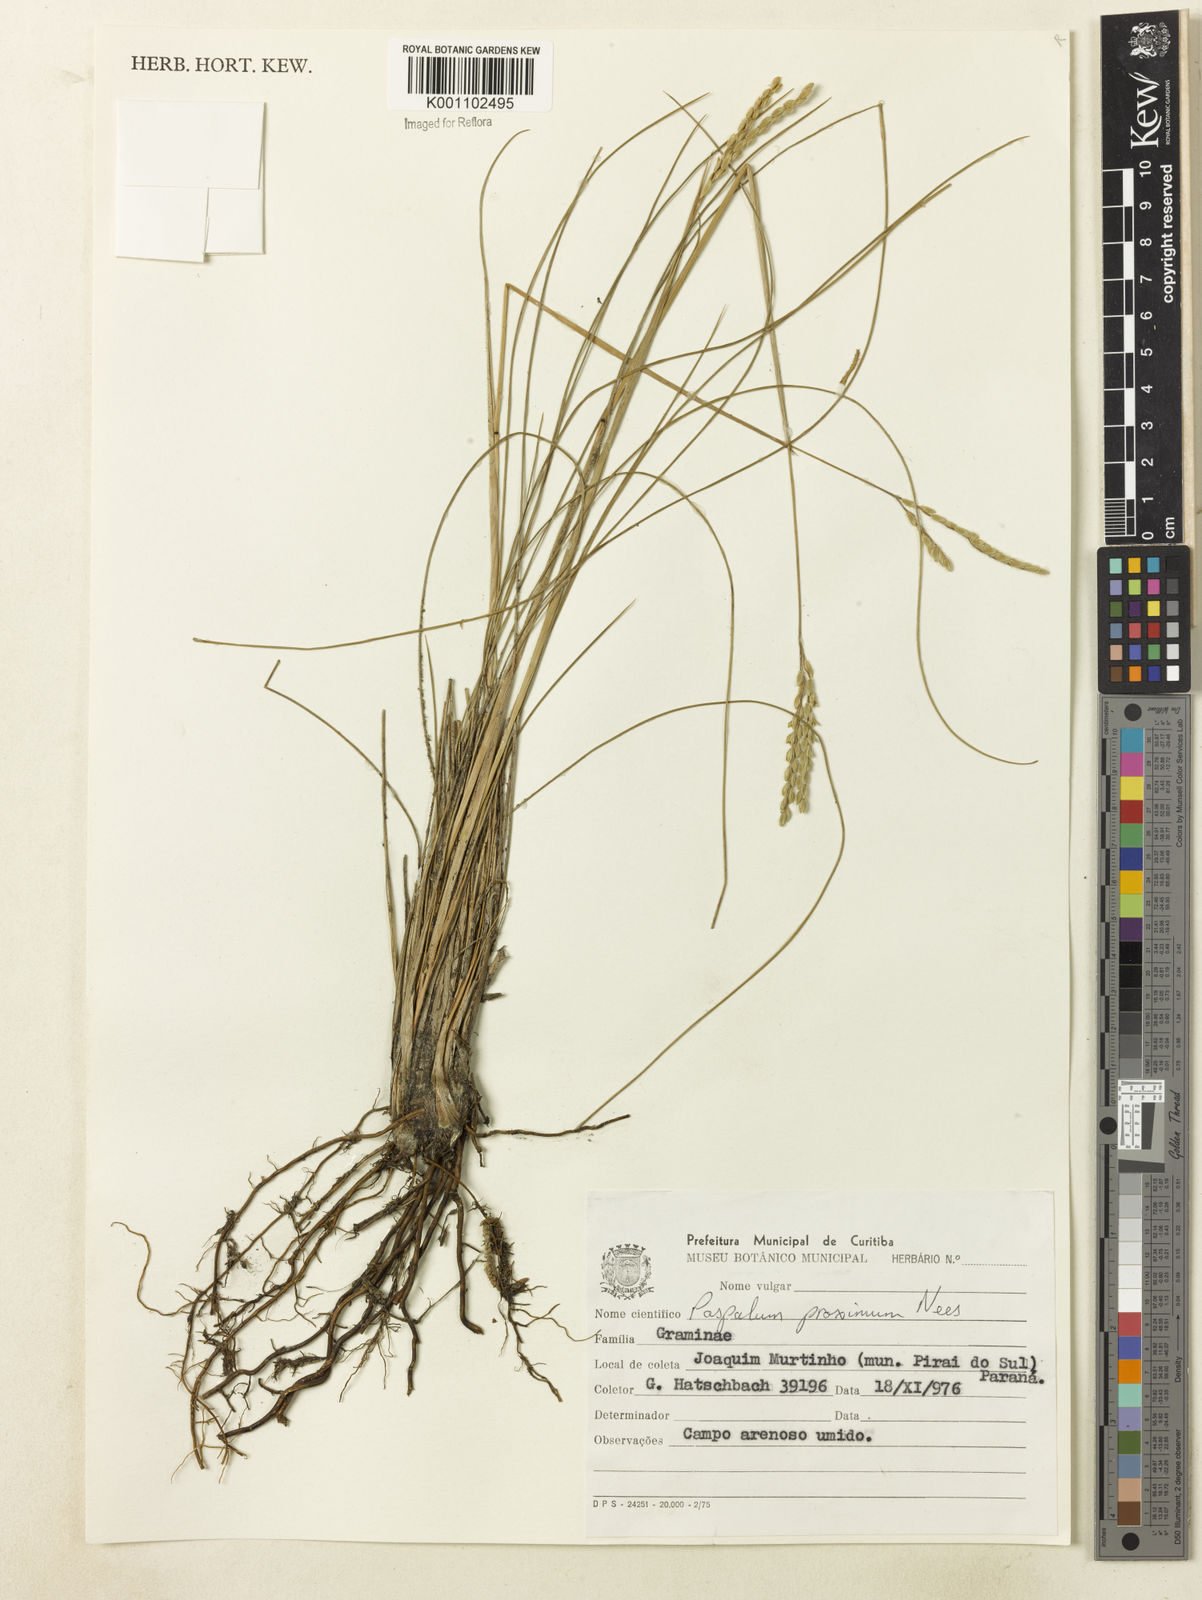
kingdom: Plantae
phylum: Tracheophyta
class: Liliopsida
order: Poales
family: Poaceae
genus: Paspalum
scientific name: Paspalum ellipticum
